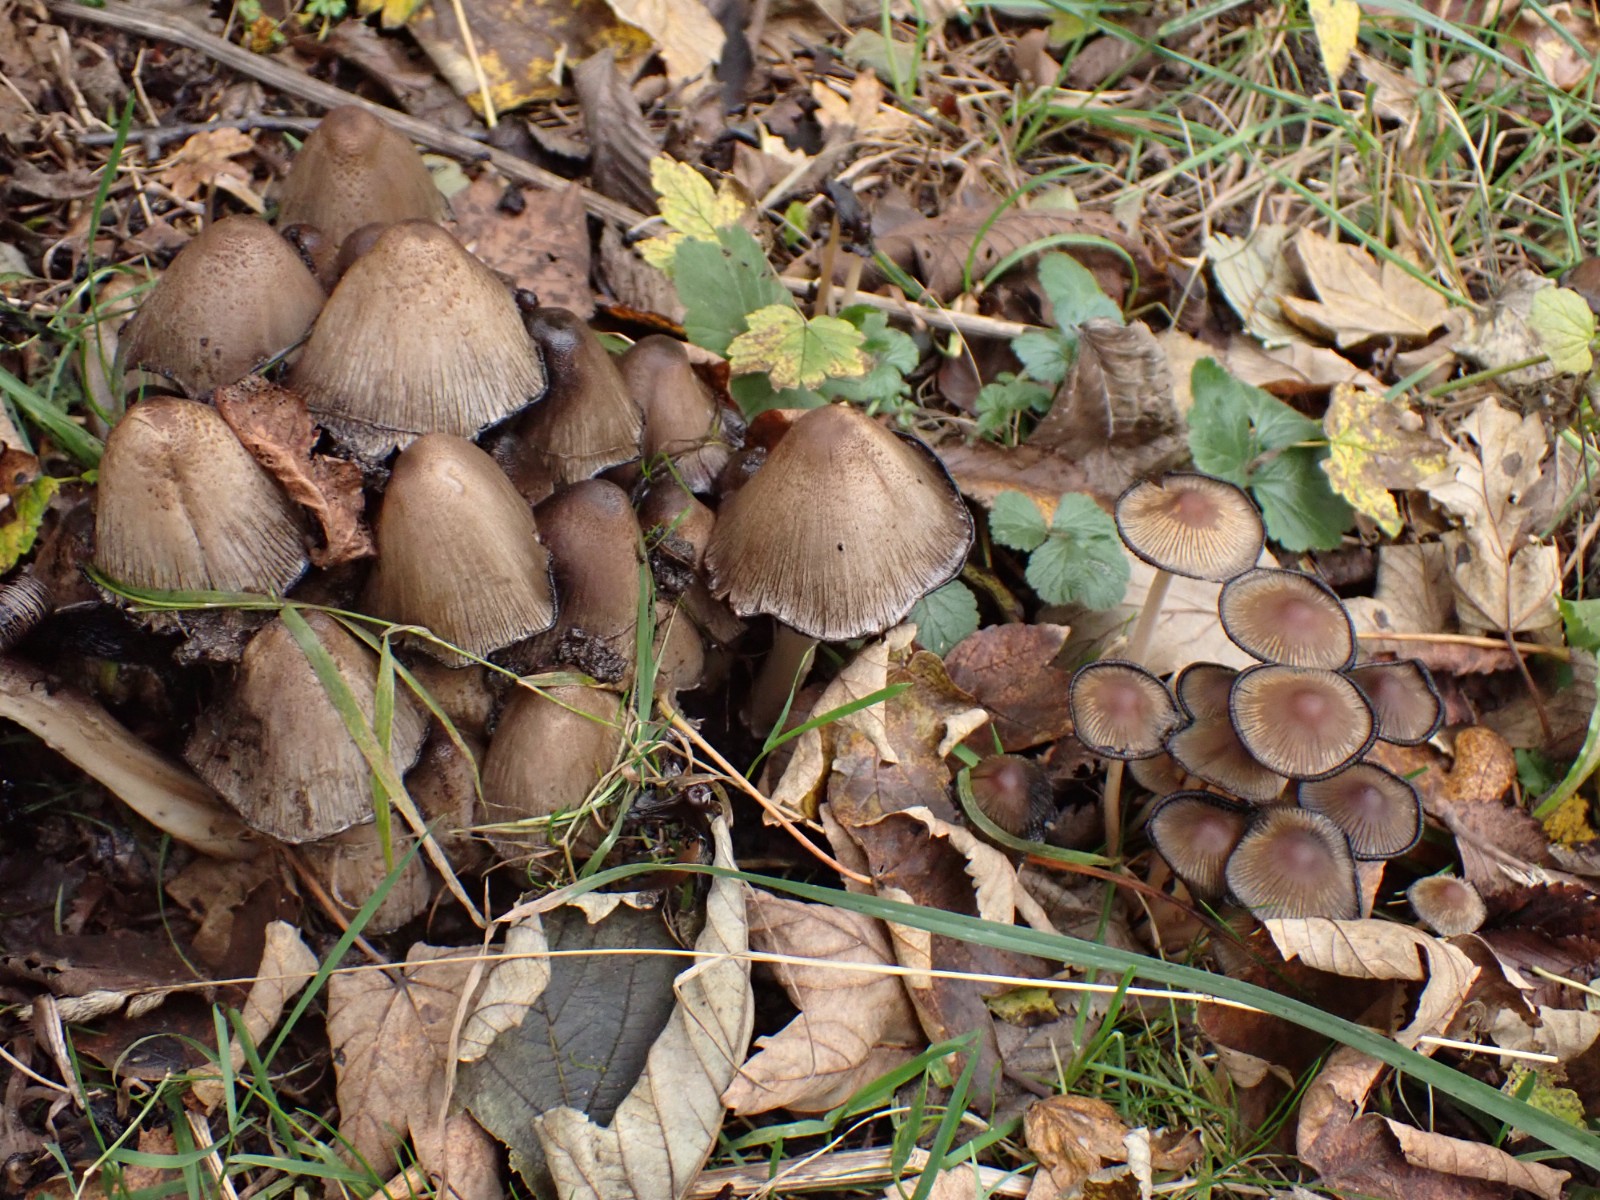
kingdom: Fungi
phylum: Basidiomycota
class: Agaricomycetes
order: Agaricales
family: Psathyrellaceae
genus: Coprinellus
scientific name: Coprinellus micaceus
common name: glimmer-blækhat
